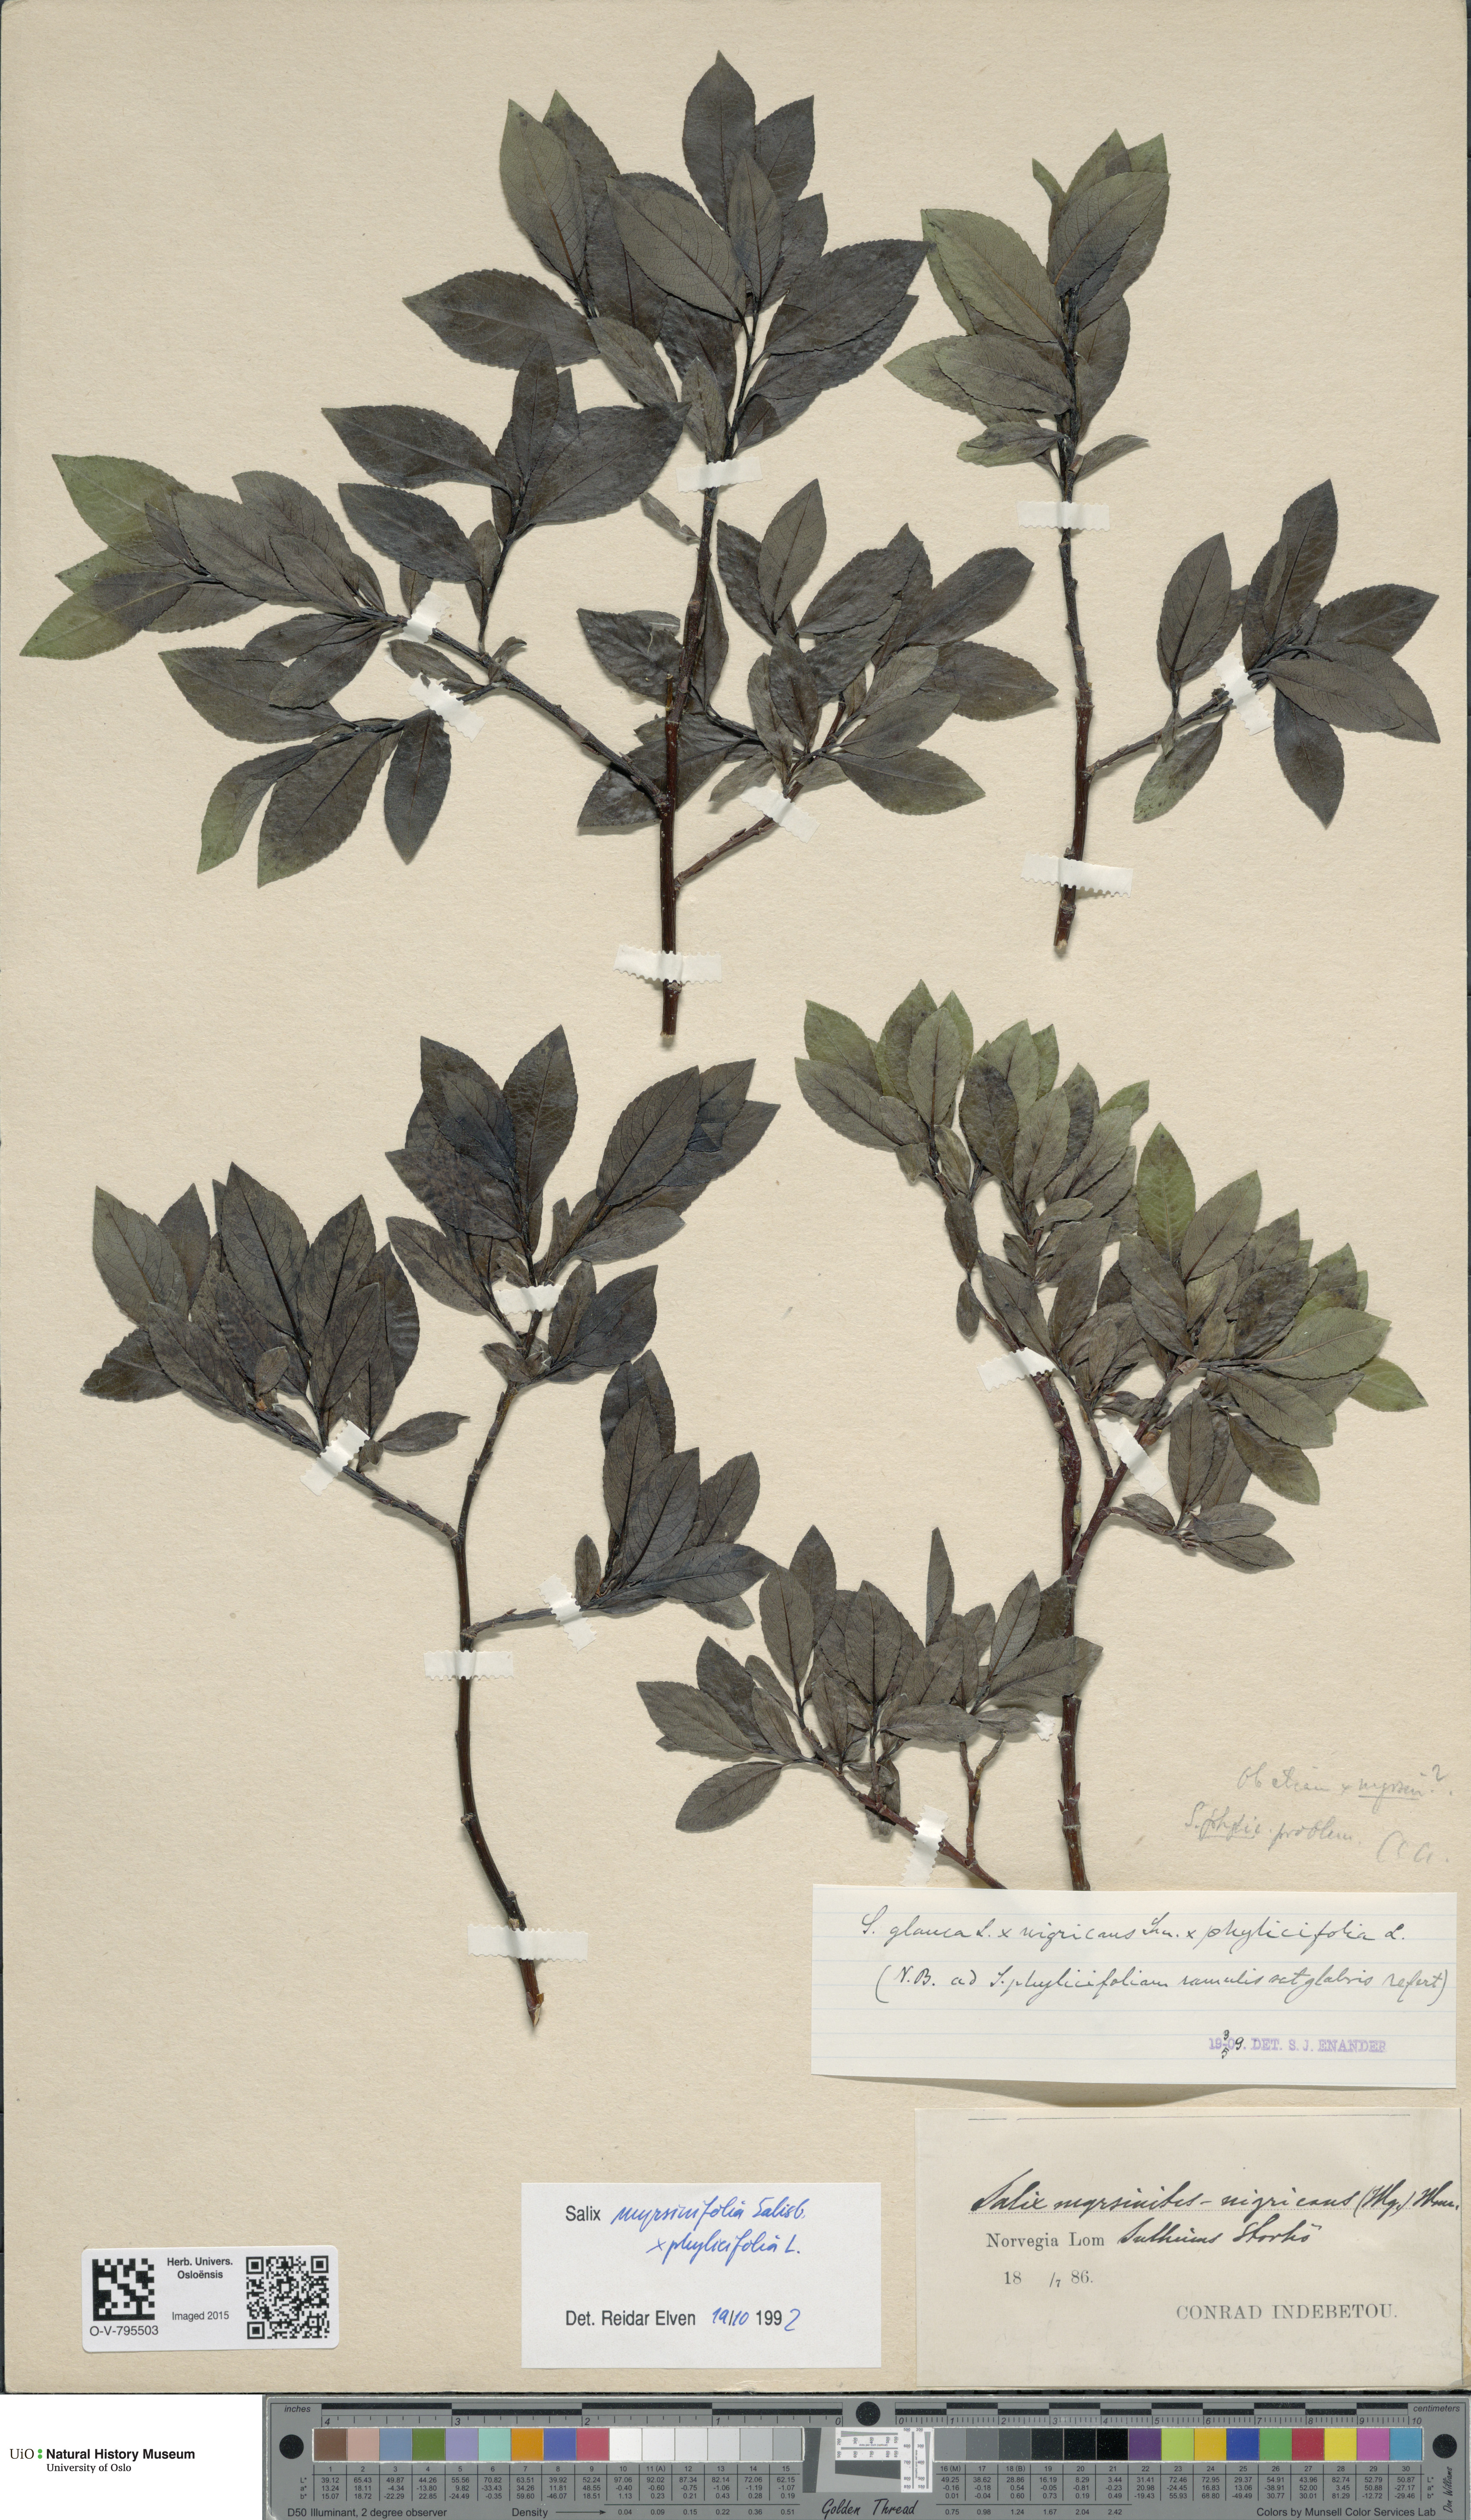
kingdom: Plantae
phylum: Tracheophyta
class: Magnoliopsida
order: Malpighiales
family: Salicaceae
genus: Salix
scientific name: Salix
